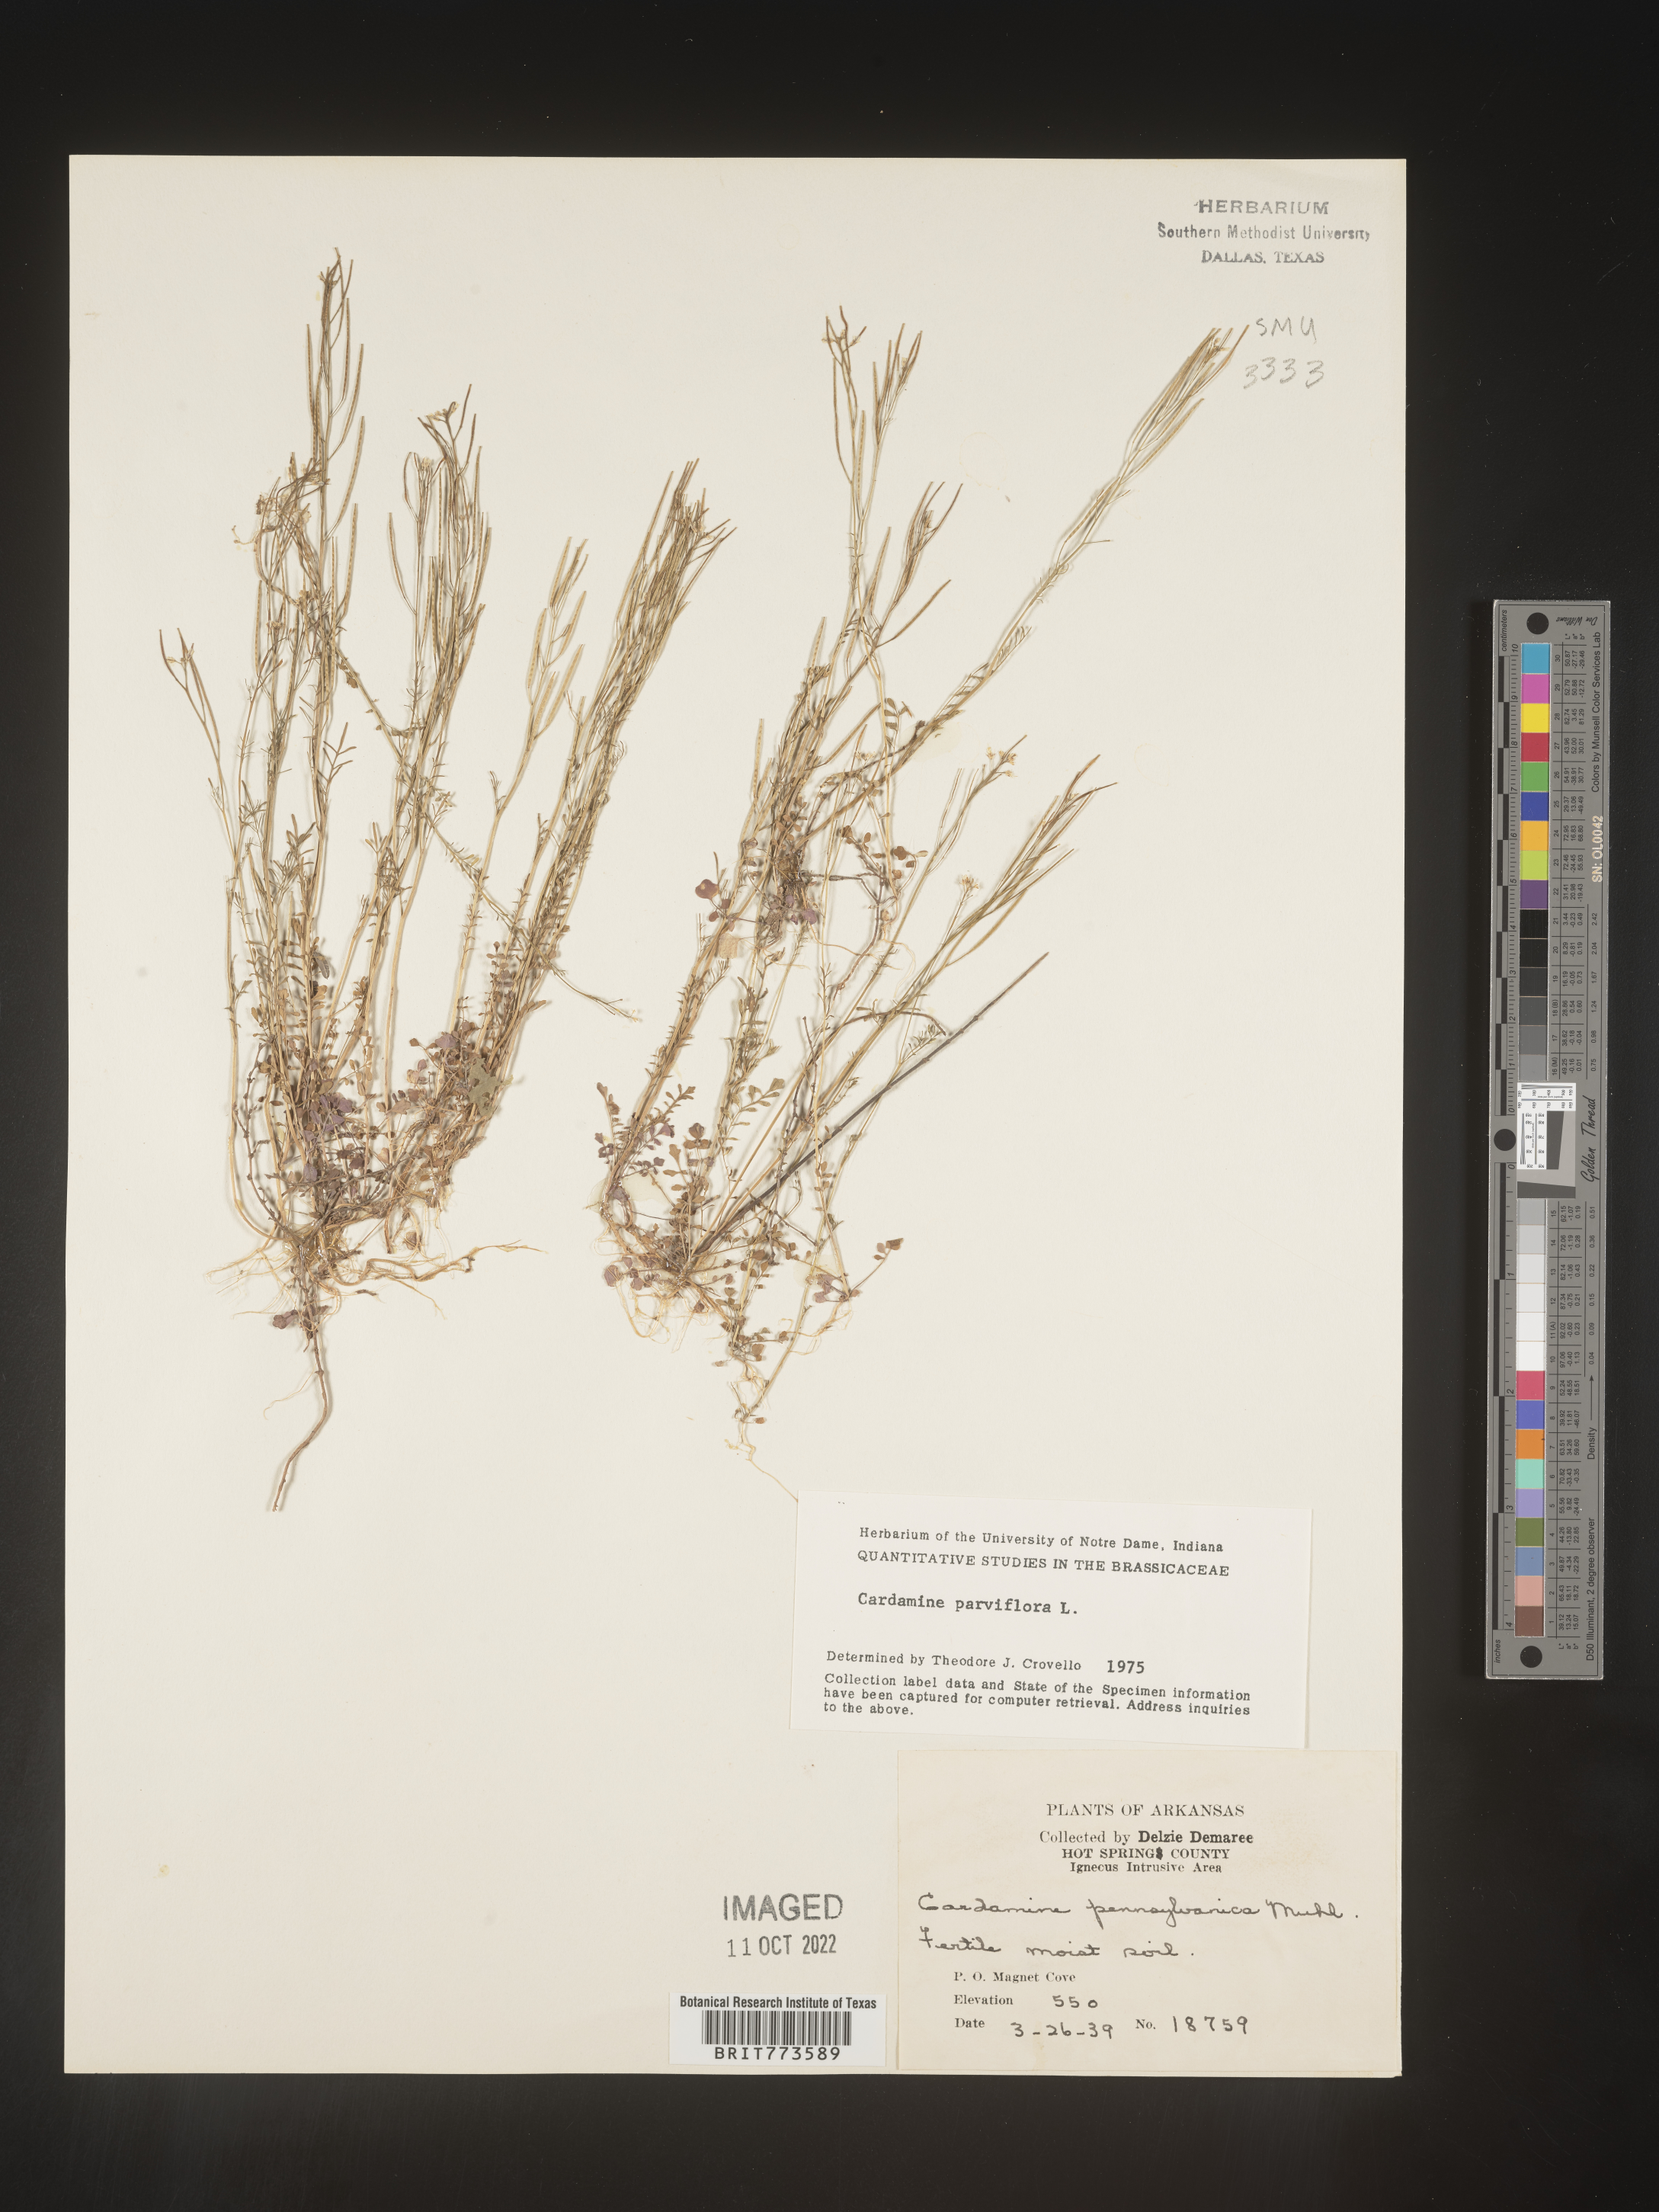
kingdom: Plantae
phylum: Tracheophyta
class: Magnoliopsida
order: Brassicales
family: Brassicaceae
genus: Cardamine
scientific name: Cardamine parviflora
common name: Sand bittercress
